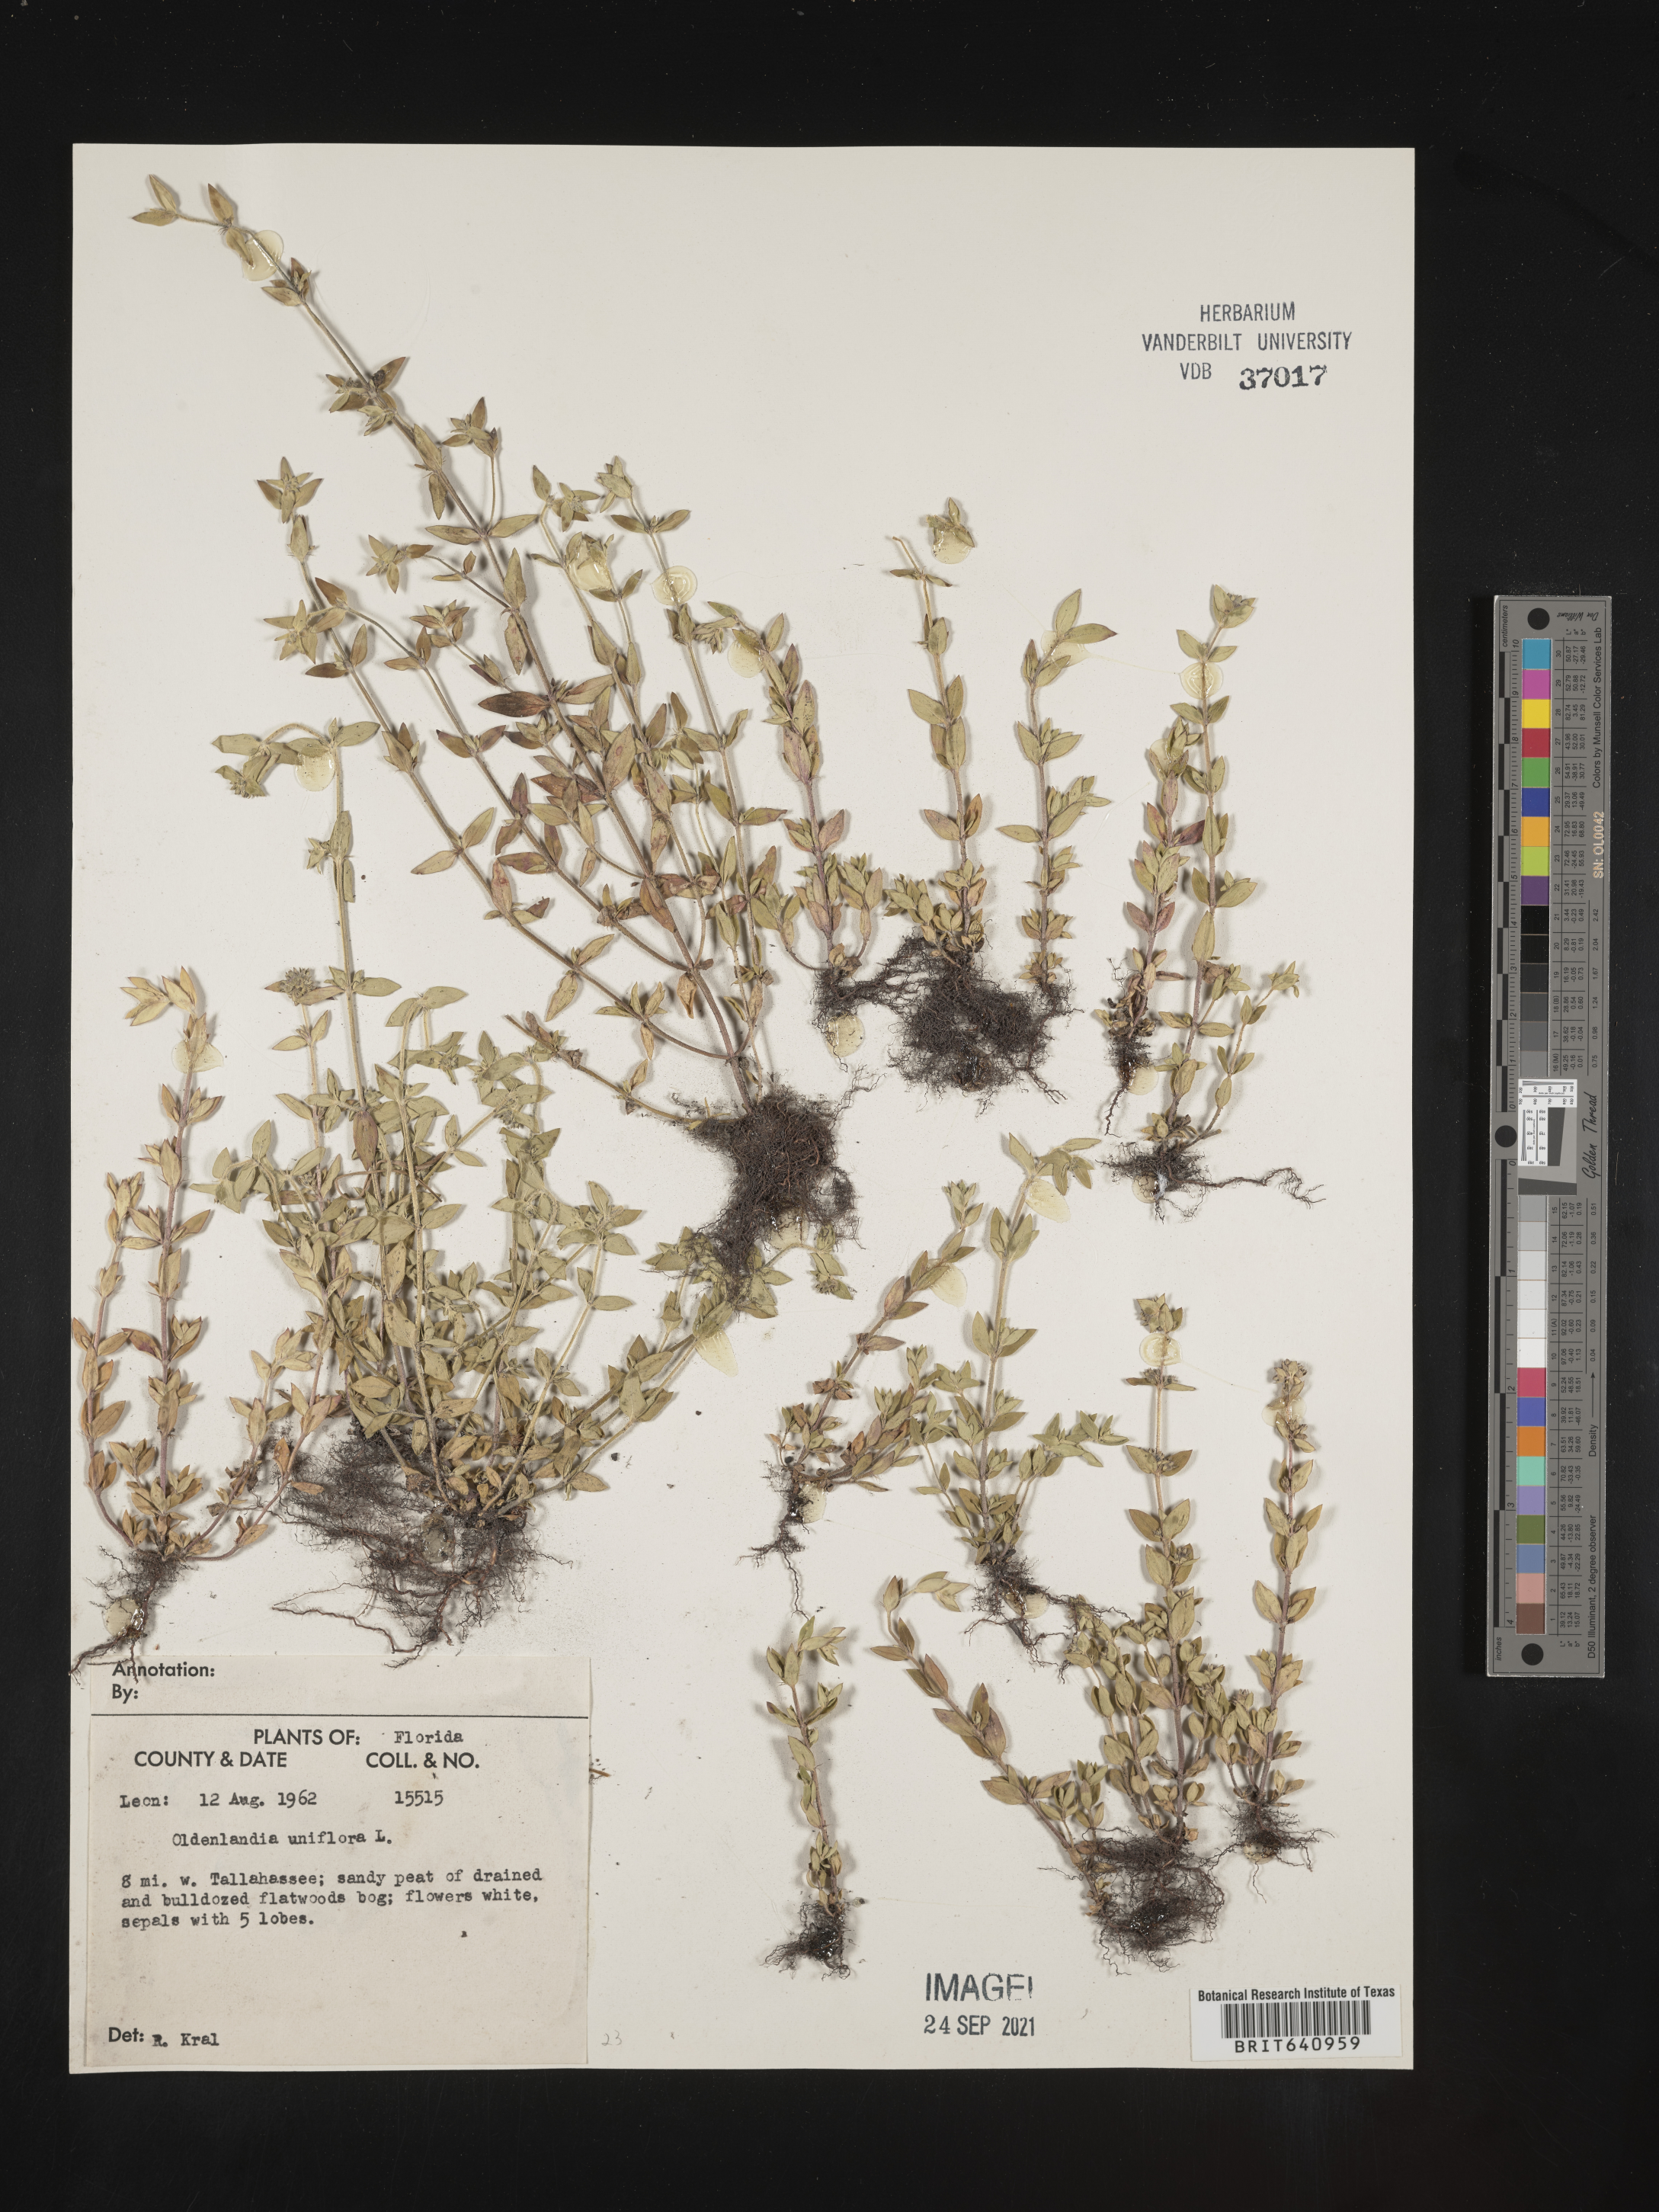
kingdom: Plantae
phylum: Tracheophyta
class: Magnoliopsida
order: Gentianales
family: Rubiaceae
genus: Edrastima
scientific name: Edrastima uniflora
